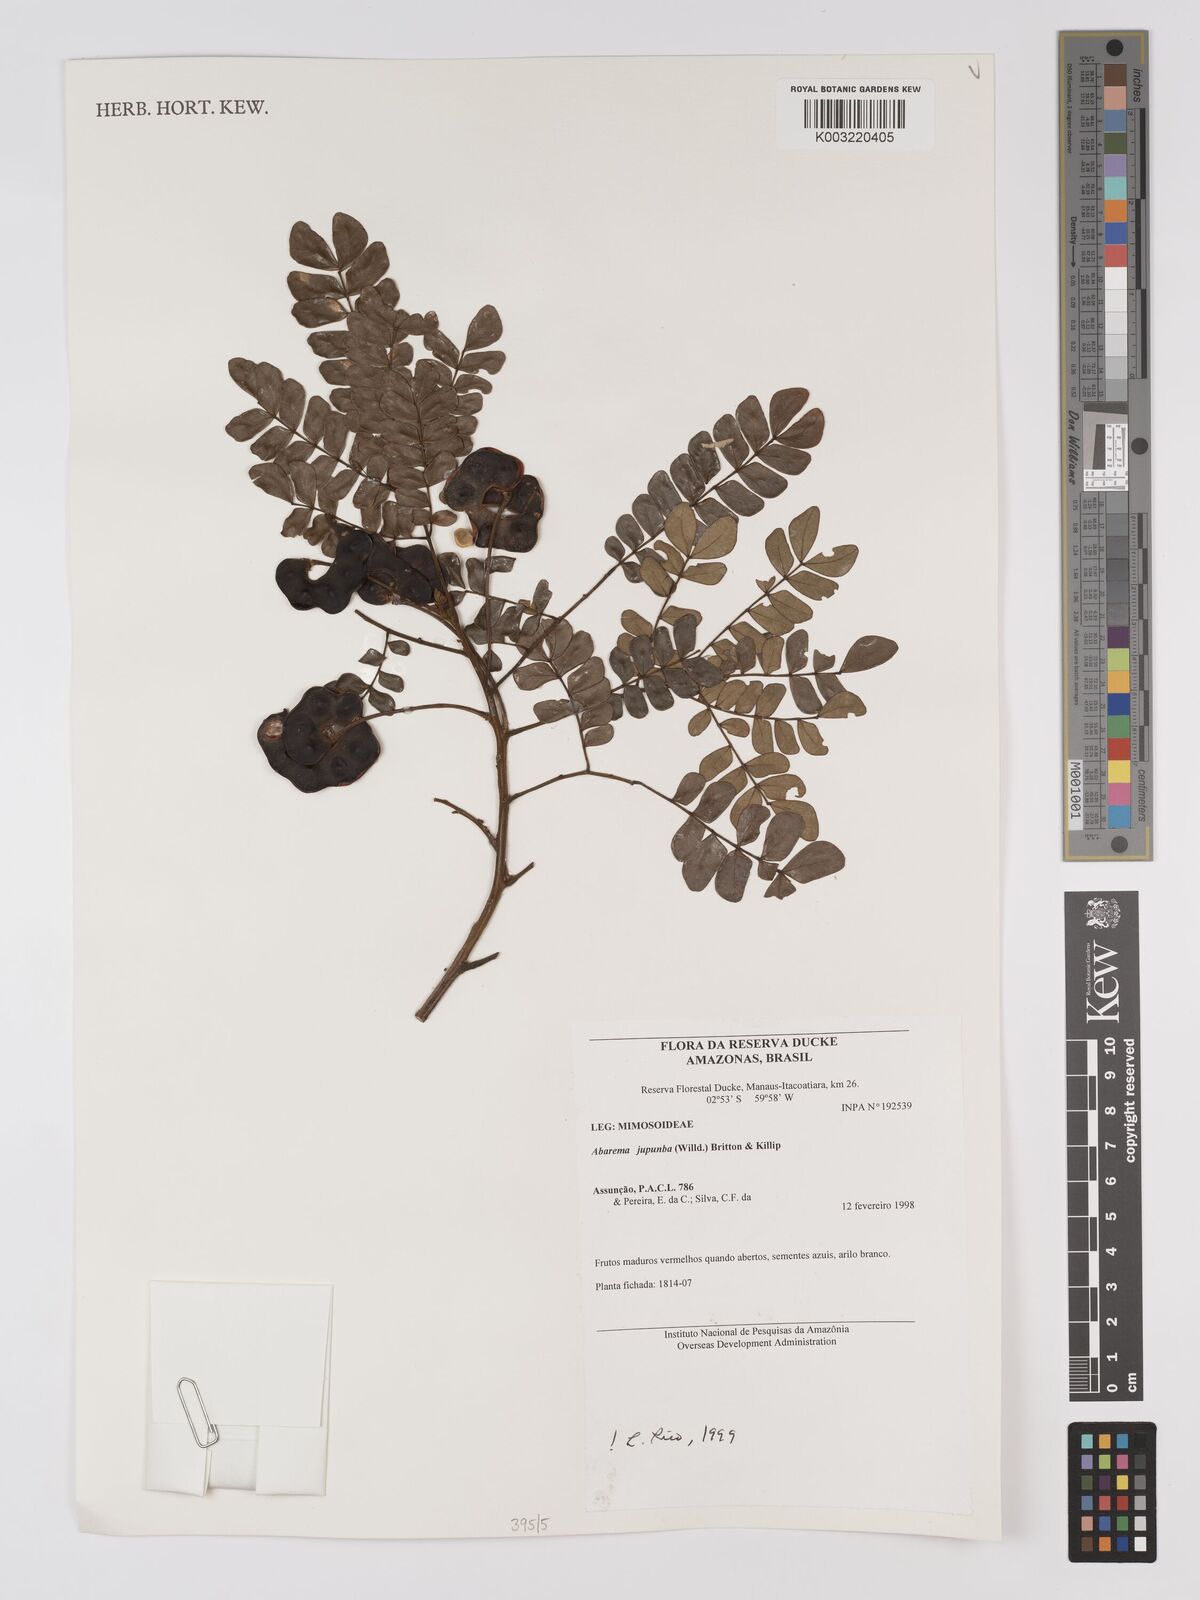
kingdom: Plantae
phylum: Tracheophyta
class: Magnoliopsida
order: Fabales
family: Fabaceae
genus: Jupunba
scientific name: Jupunba trapezifolia
